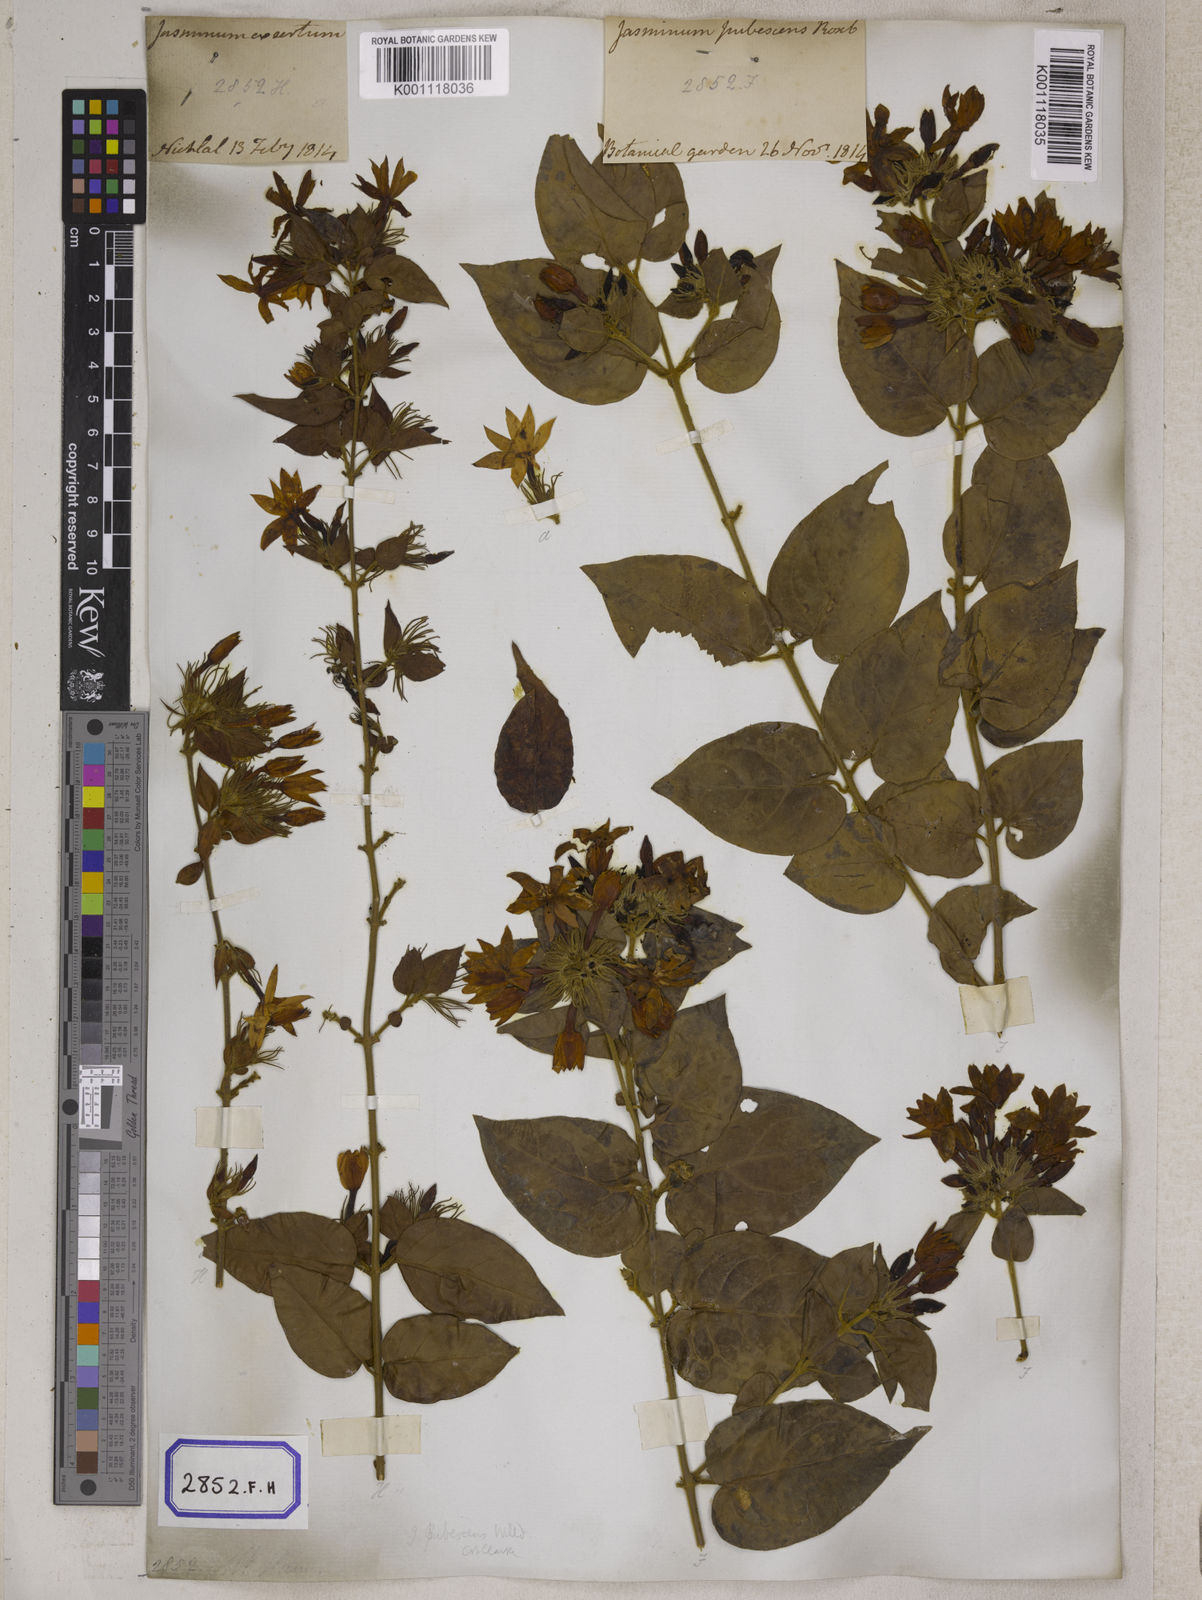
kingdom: Plantae
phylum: Tracheophyta
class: Magnoliopsida
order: Gentianales
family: Rubiaceae
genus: Guettarda
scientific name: Guettarda speciosa
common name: Sea randa
